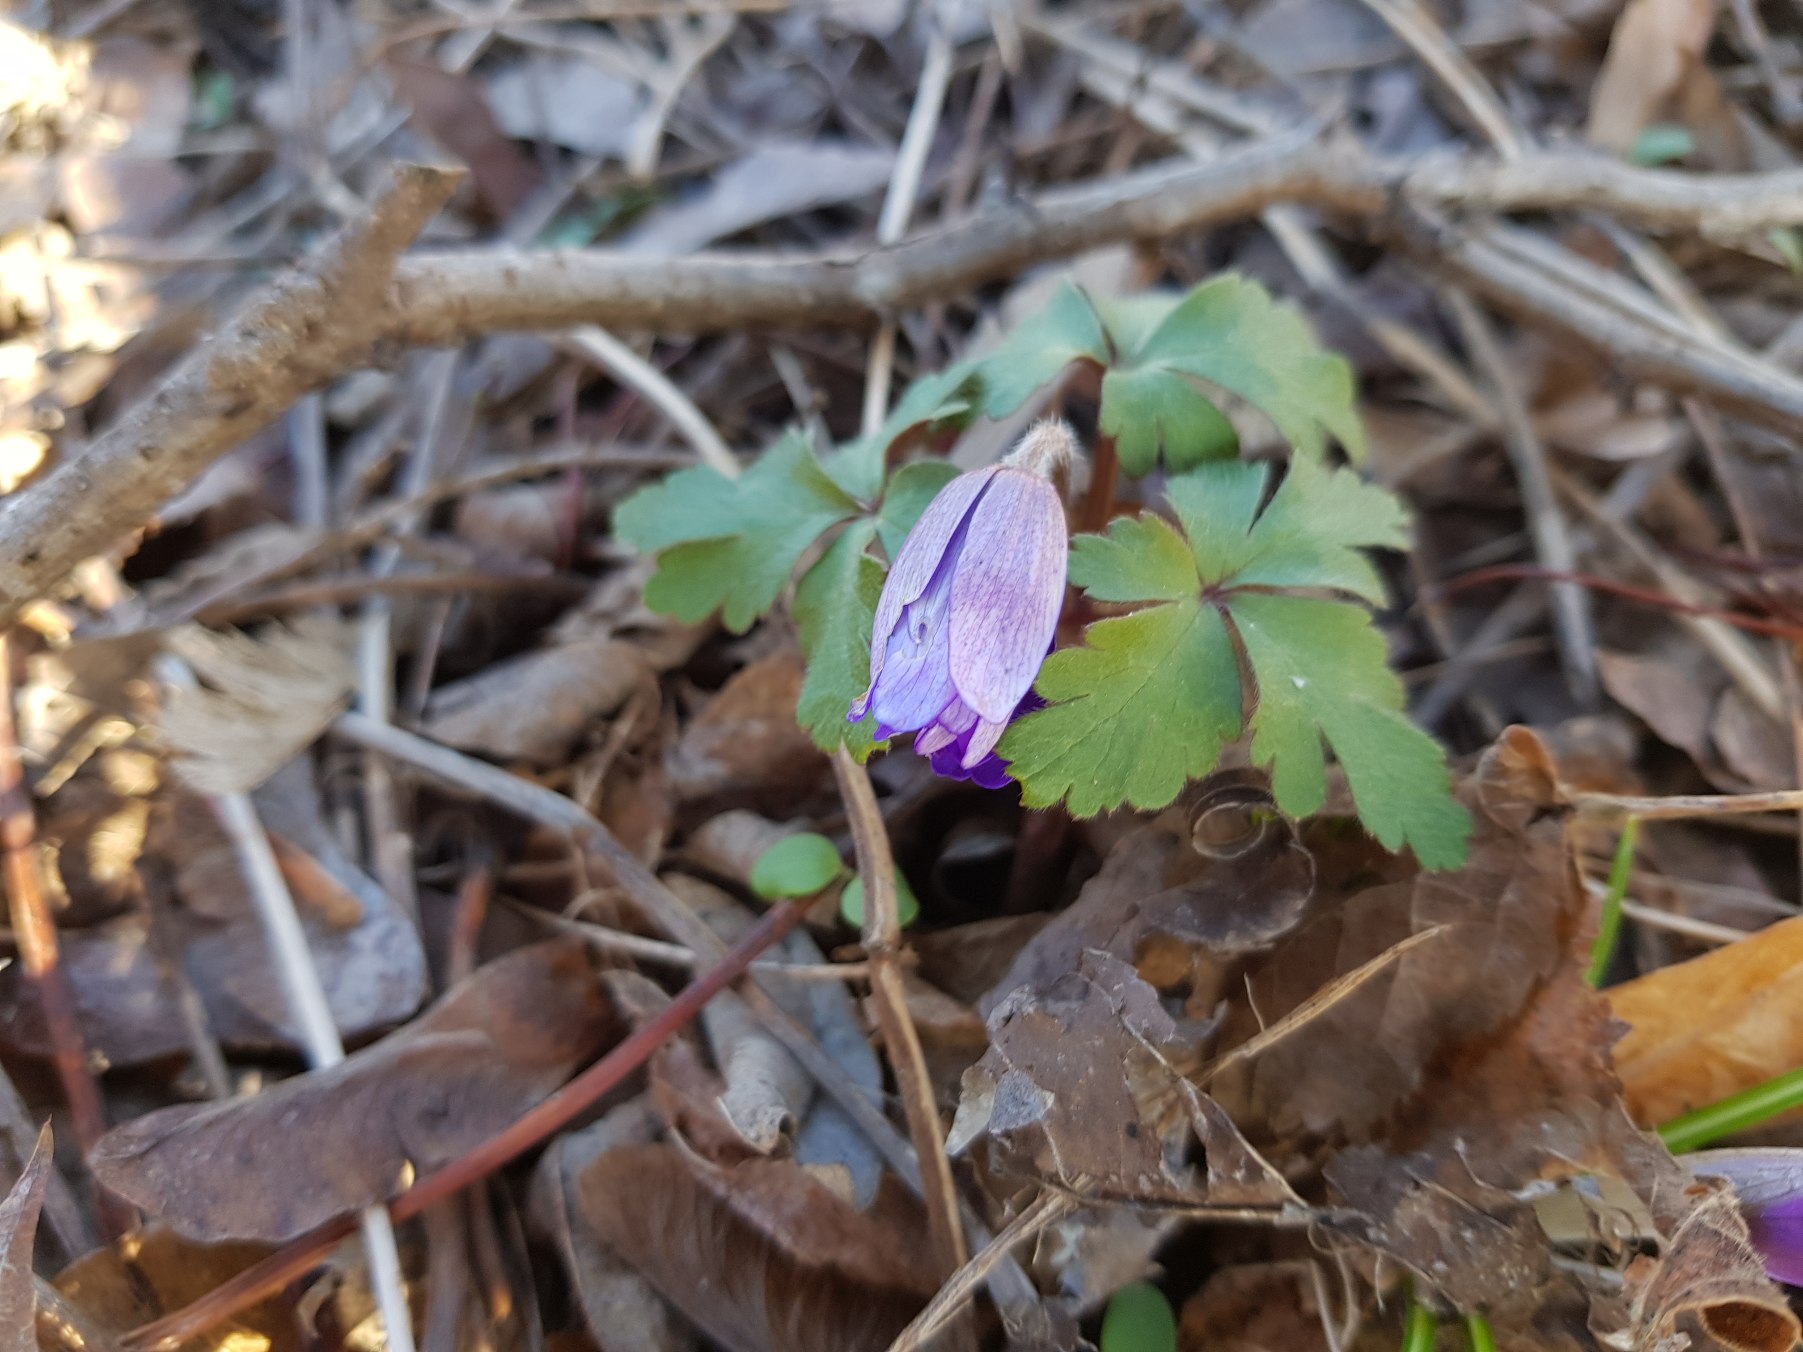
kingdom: Plantae
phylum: Tracheophyta
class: Magnoliopsida
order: Ranunculales
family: Ranunculaceae
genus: Anemone
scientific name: Anemone blanda
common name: Balkan-anemone
